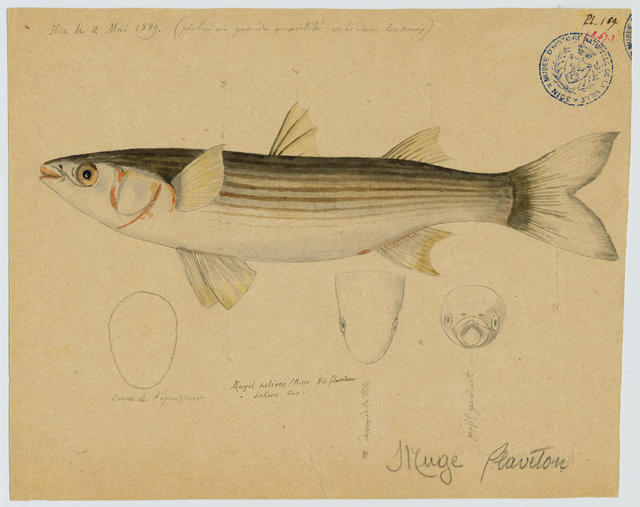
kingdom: Animalia
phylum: Chordata
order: Mugiliformes
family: Mugilidae
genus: Chelon
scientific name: Chelon saliens
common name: Leaping mullet
